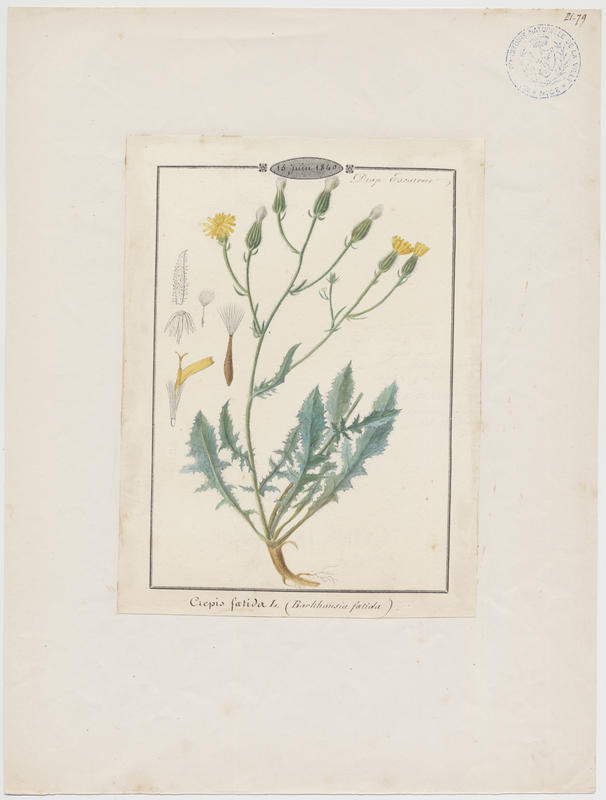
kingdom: Plantae
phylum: Tracheophyta
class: Magnoliopsida
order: Asterales
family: Asteraceae
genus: Crepis
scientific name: Crepis foetida
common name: Stinking hawk's-beard
